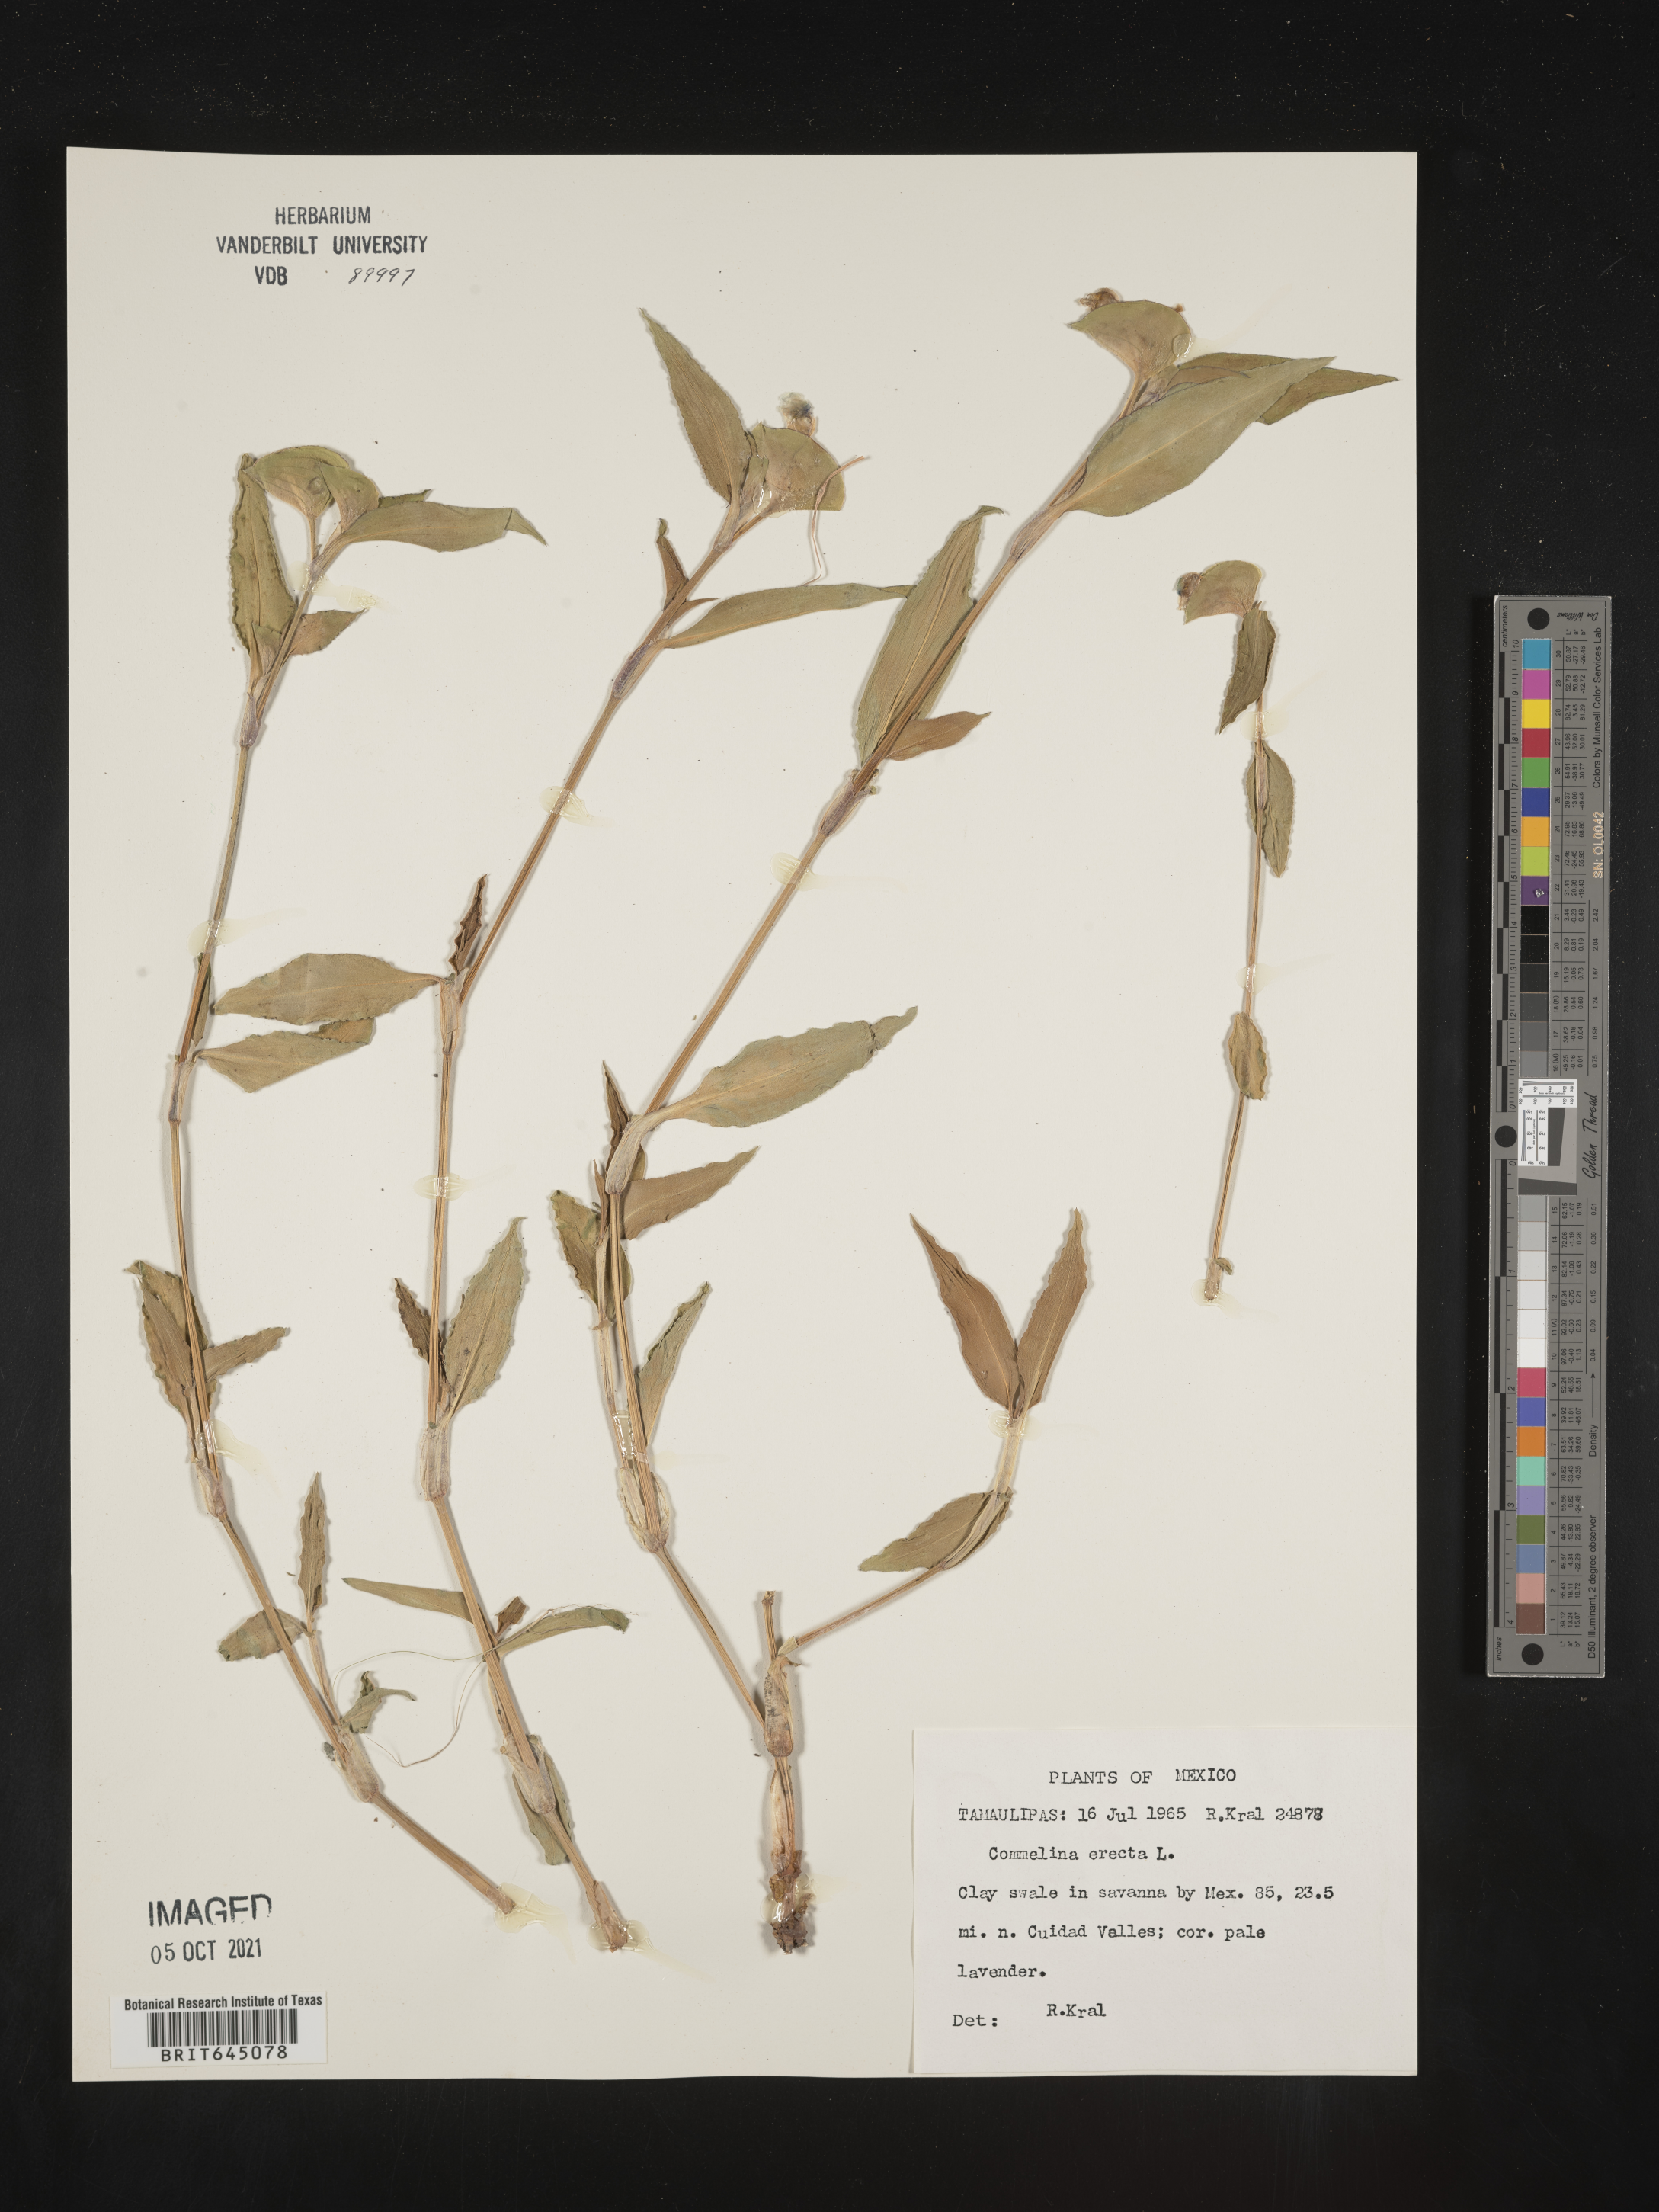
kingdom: Plantae
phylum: Tracheophyta
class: Liliopsida
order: Commelinales
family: Commelinaceae
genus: Commelina
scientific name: Commelina
